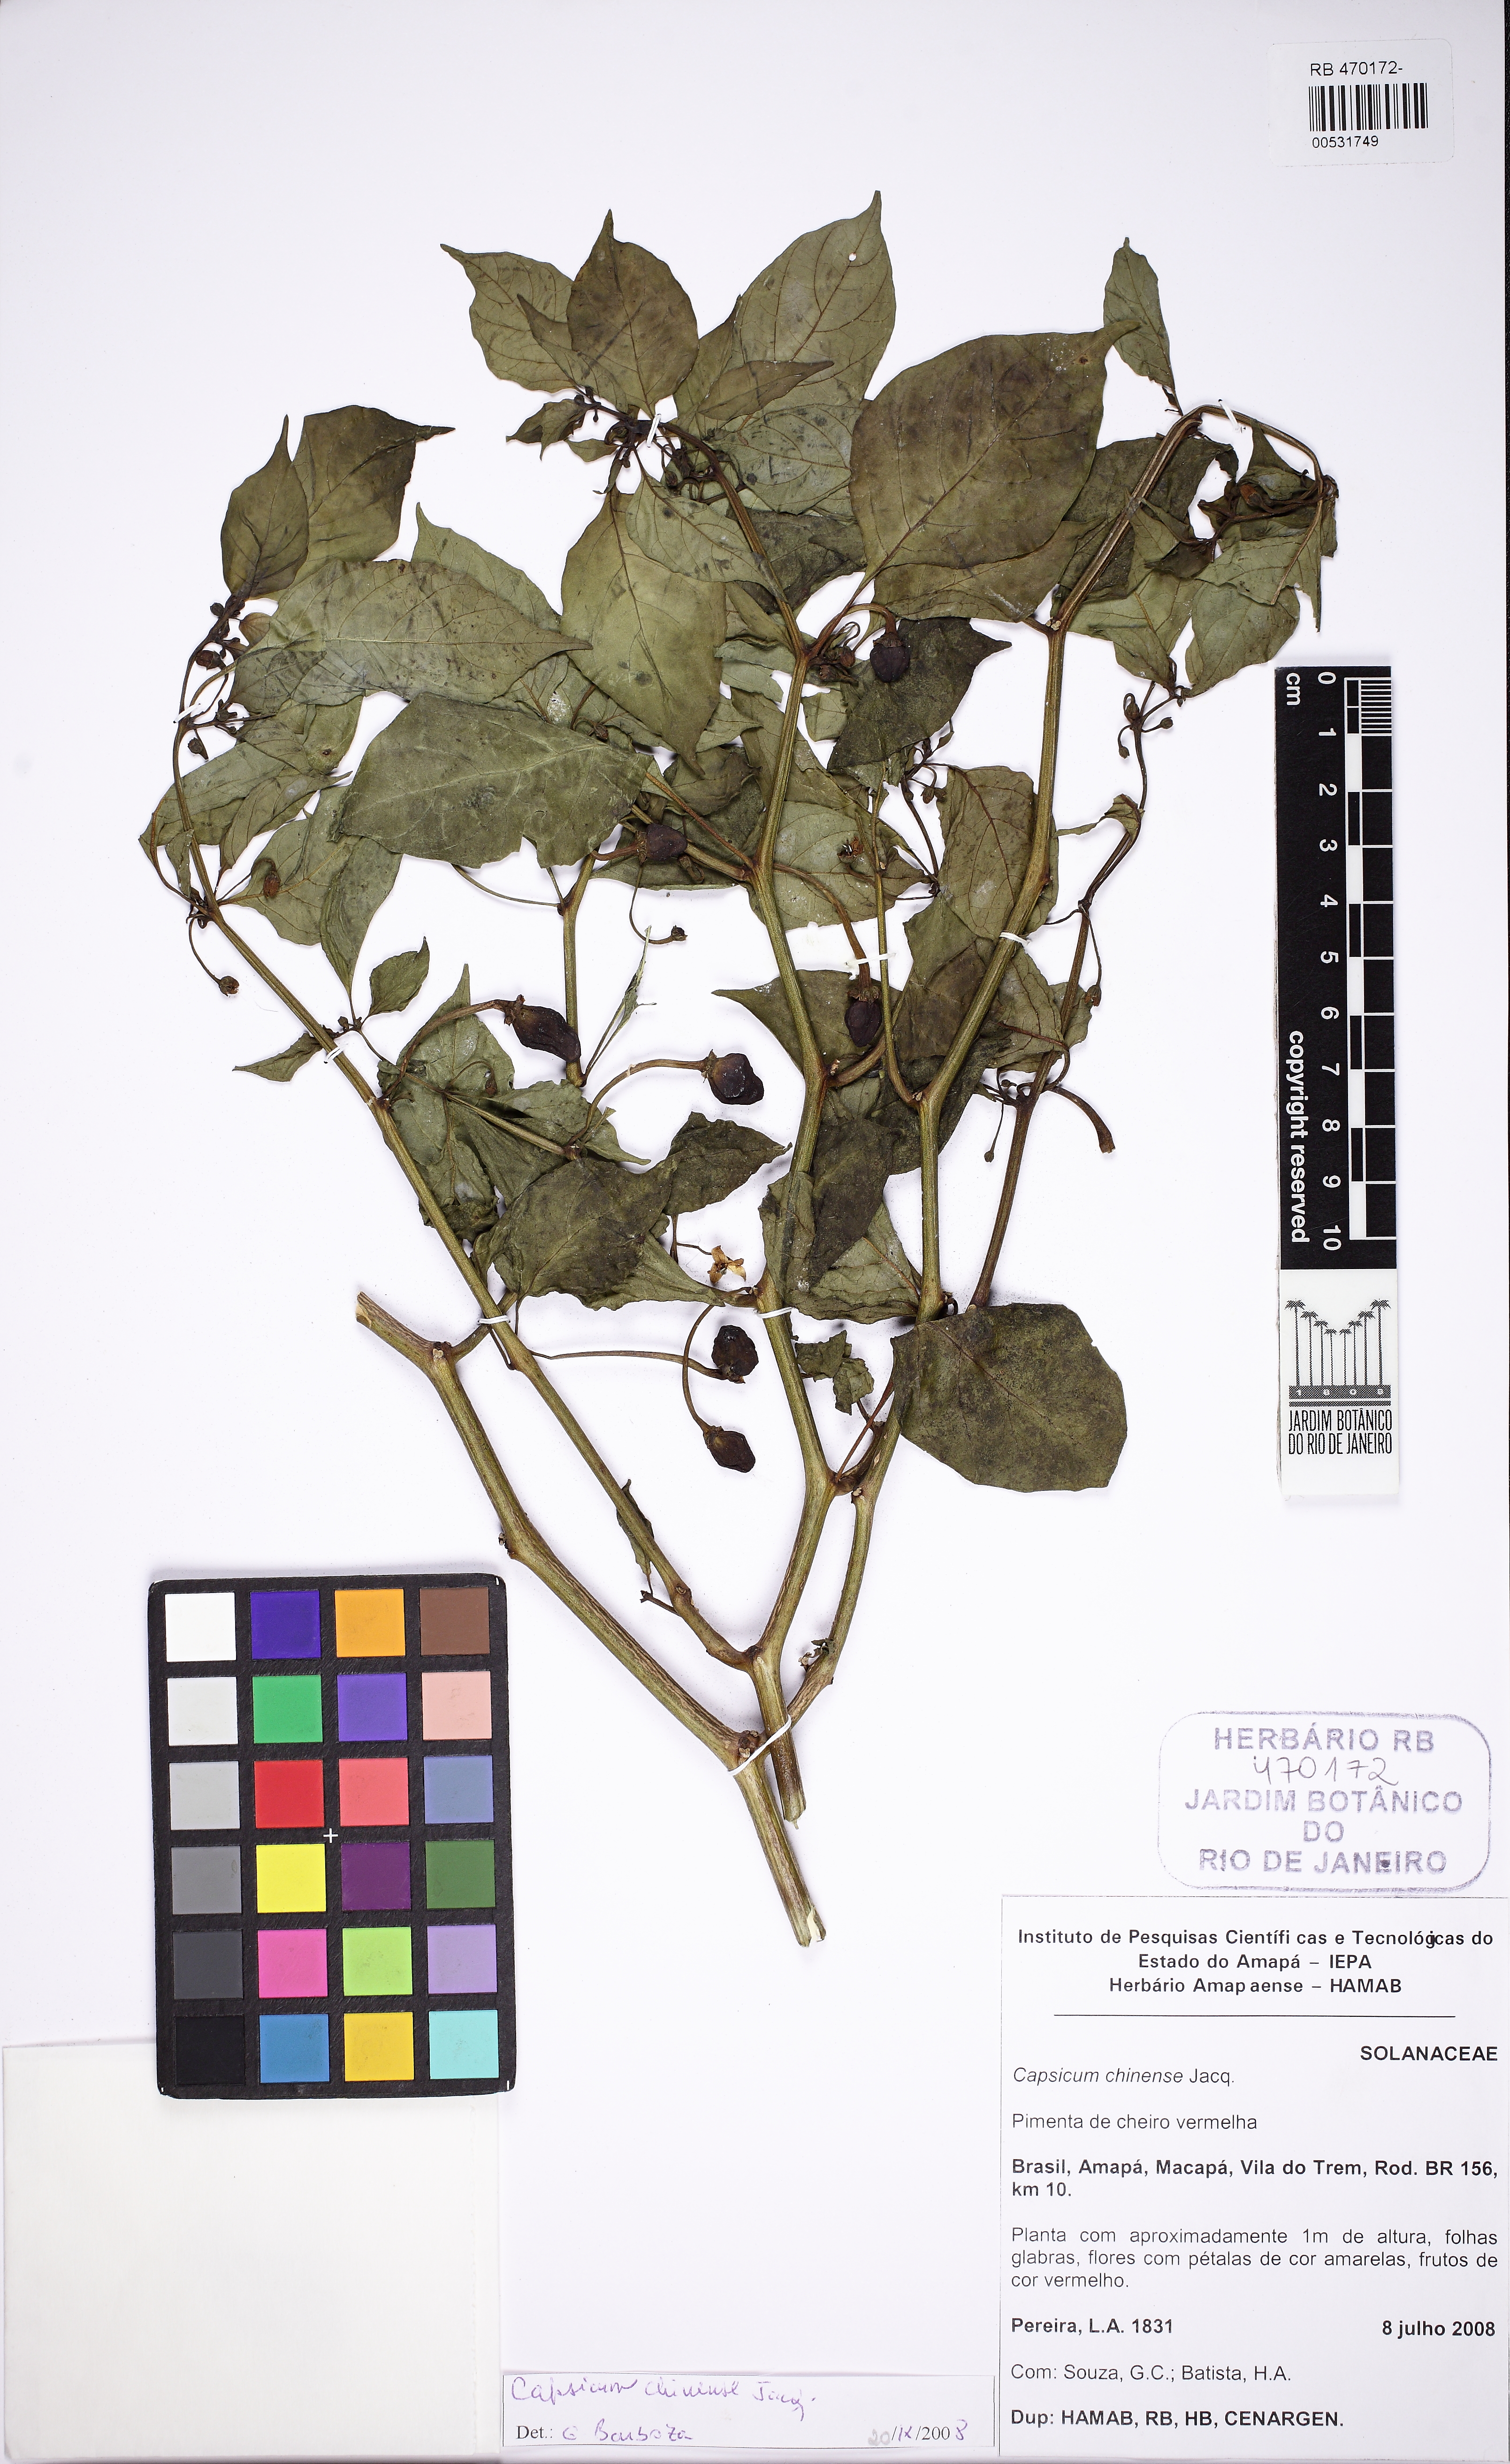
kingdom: Plantae
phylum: Tracheophyta
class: Magnoliopsida
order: Solanales
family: Solanaceae
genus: Capsicum
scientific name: Capsicum chinense
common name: Yellow squash pepper
